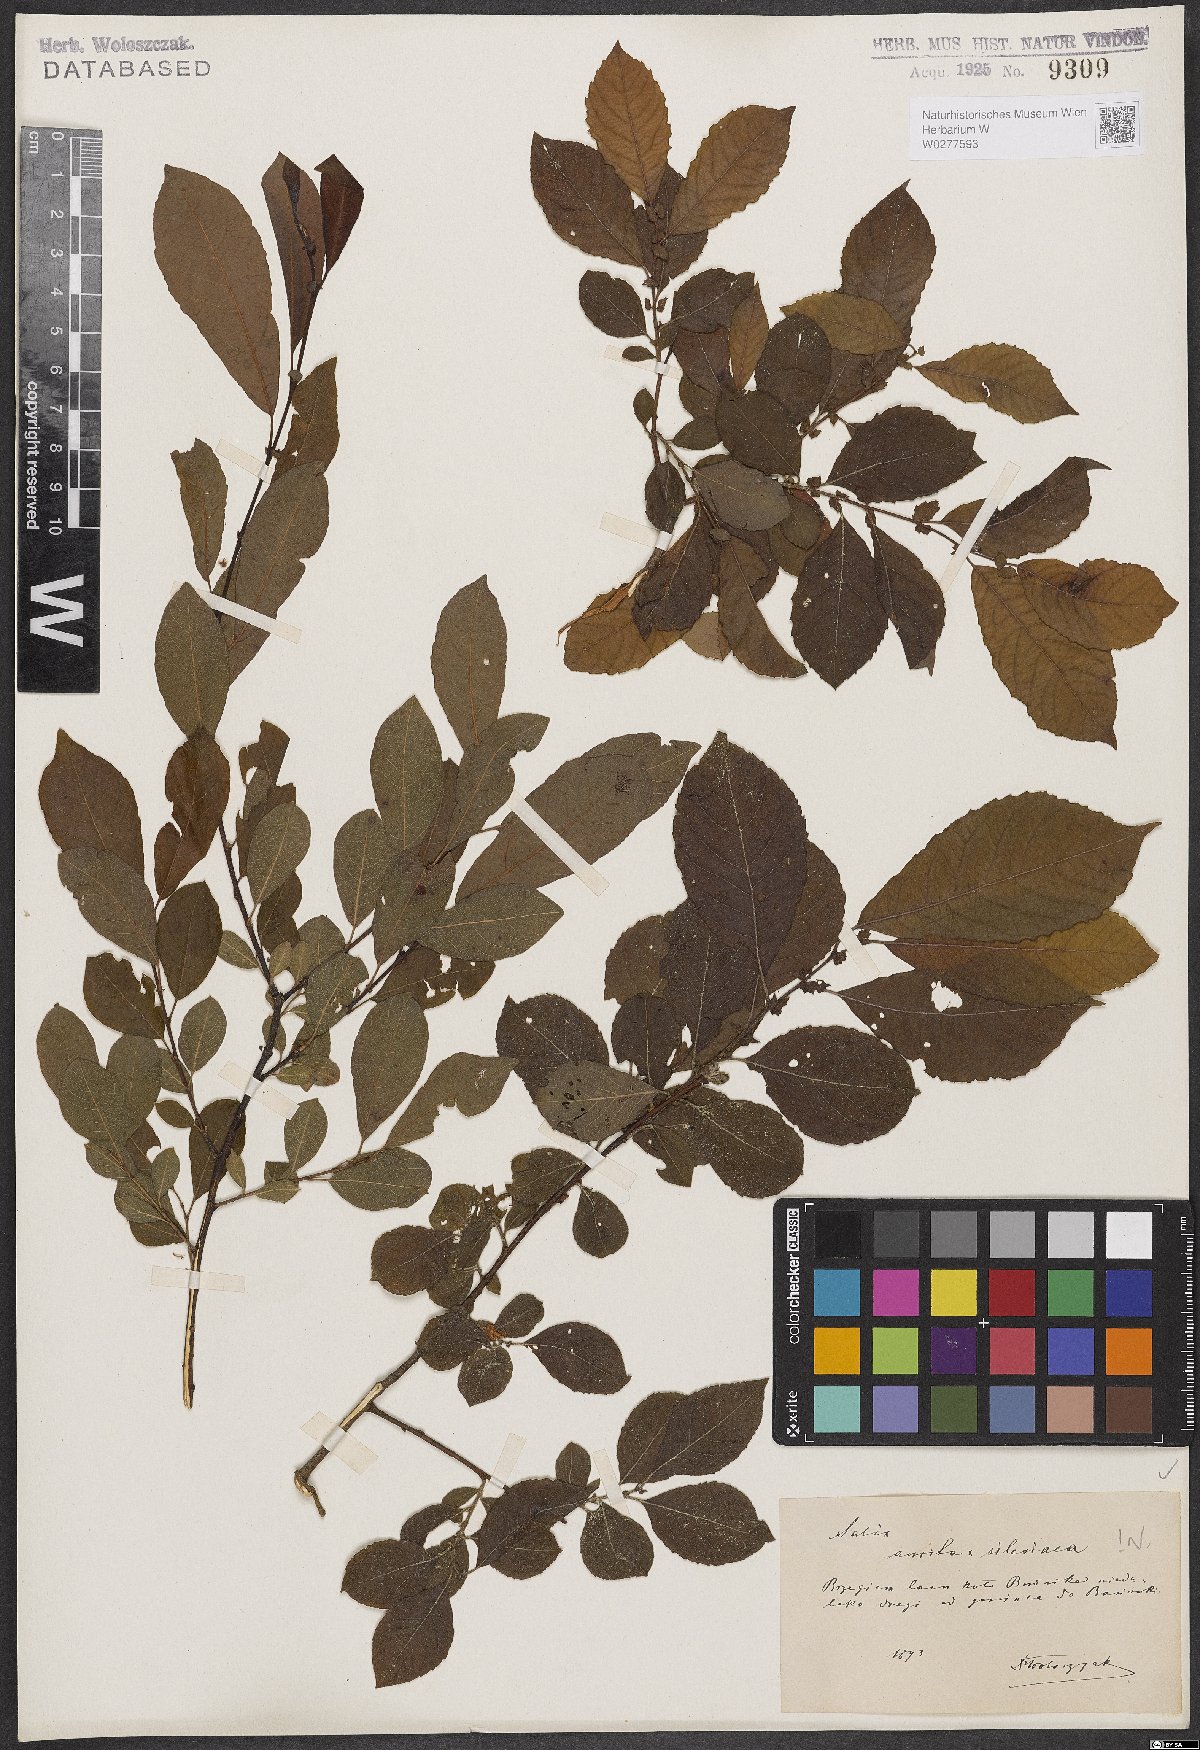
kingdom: Plantae
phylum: Tracheophyta
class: Magnoliopsida
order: Malpighiales
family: Salicaceae
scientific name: Salicaceae
